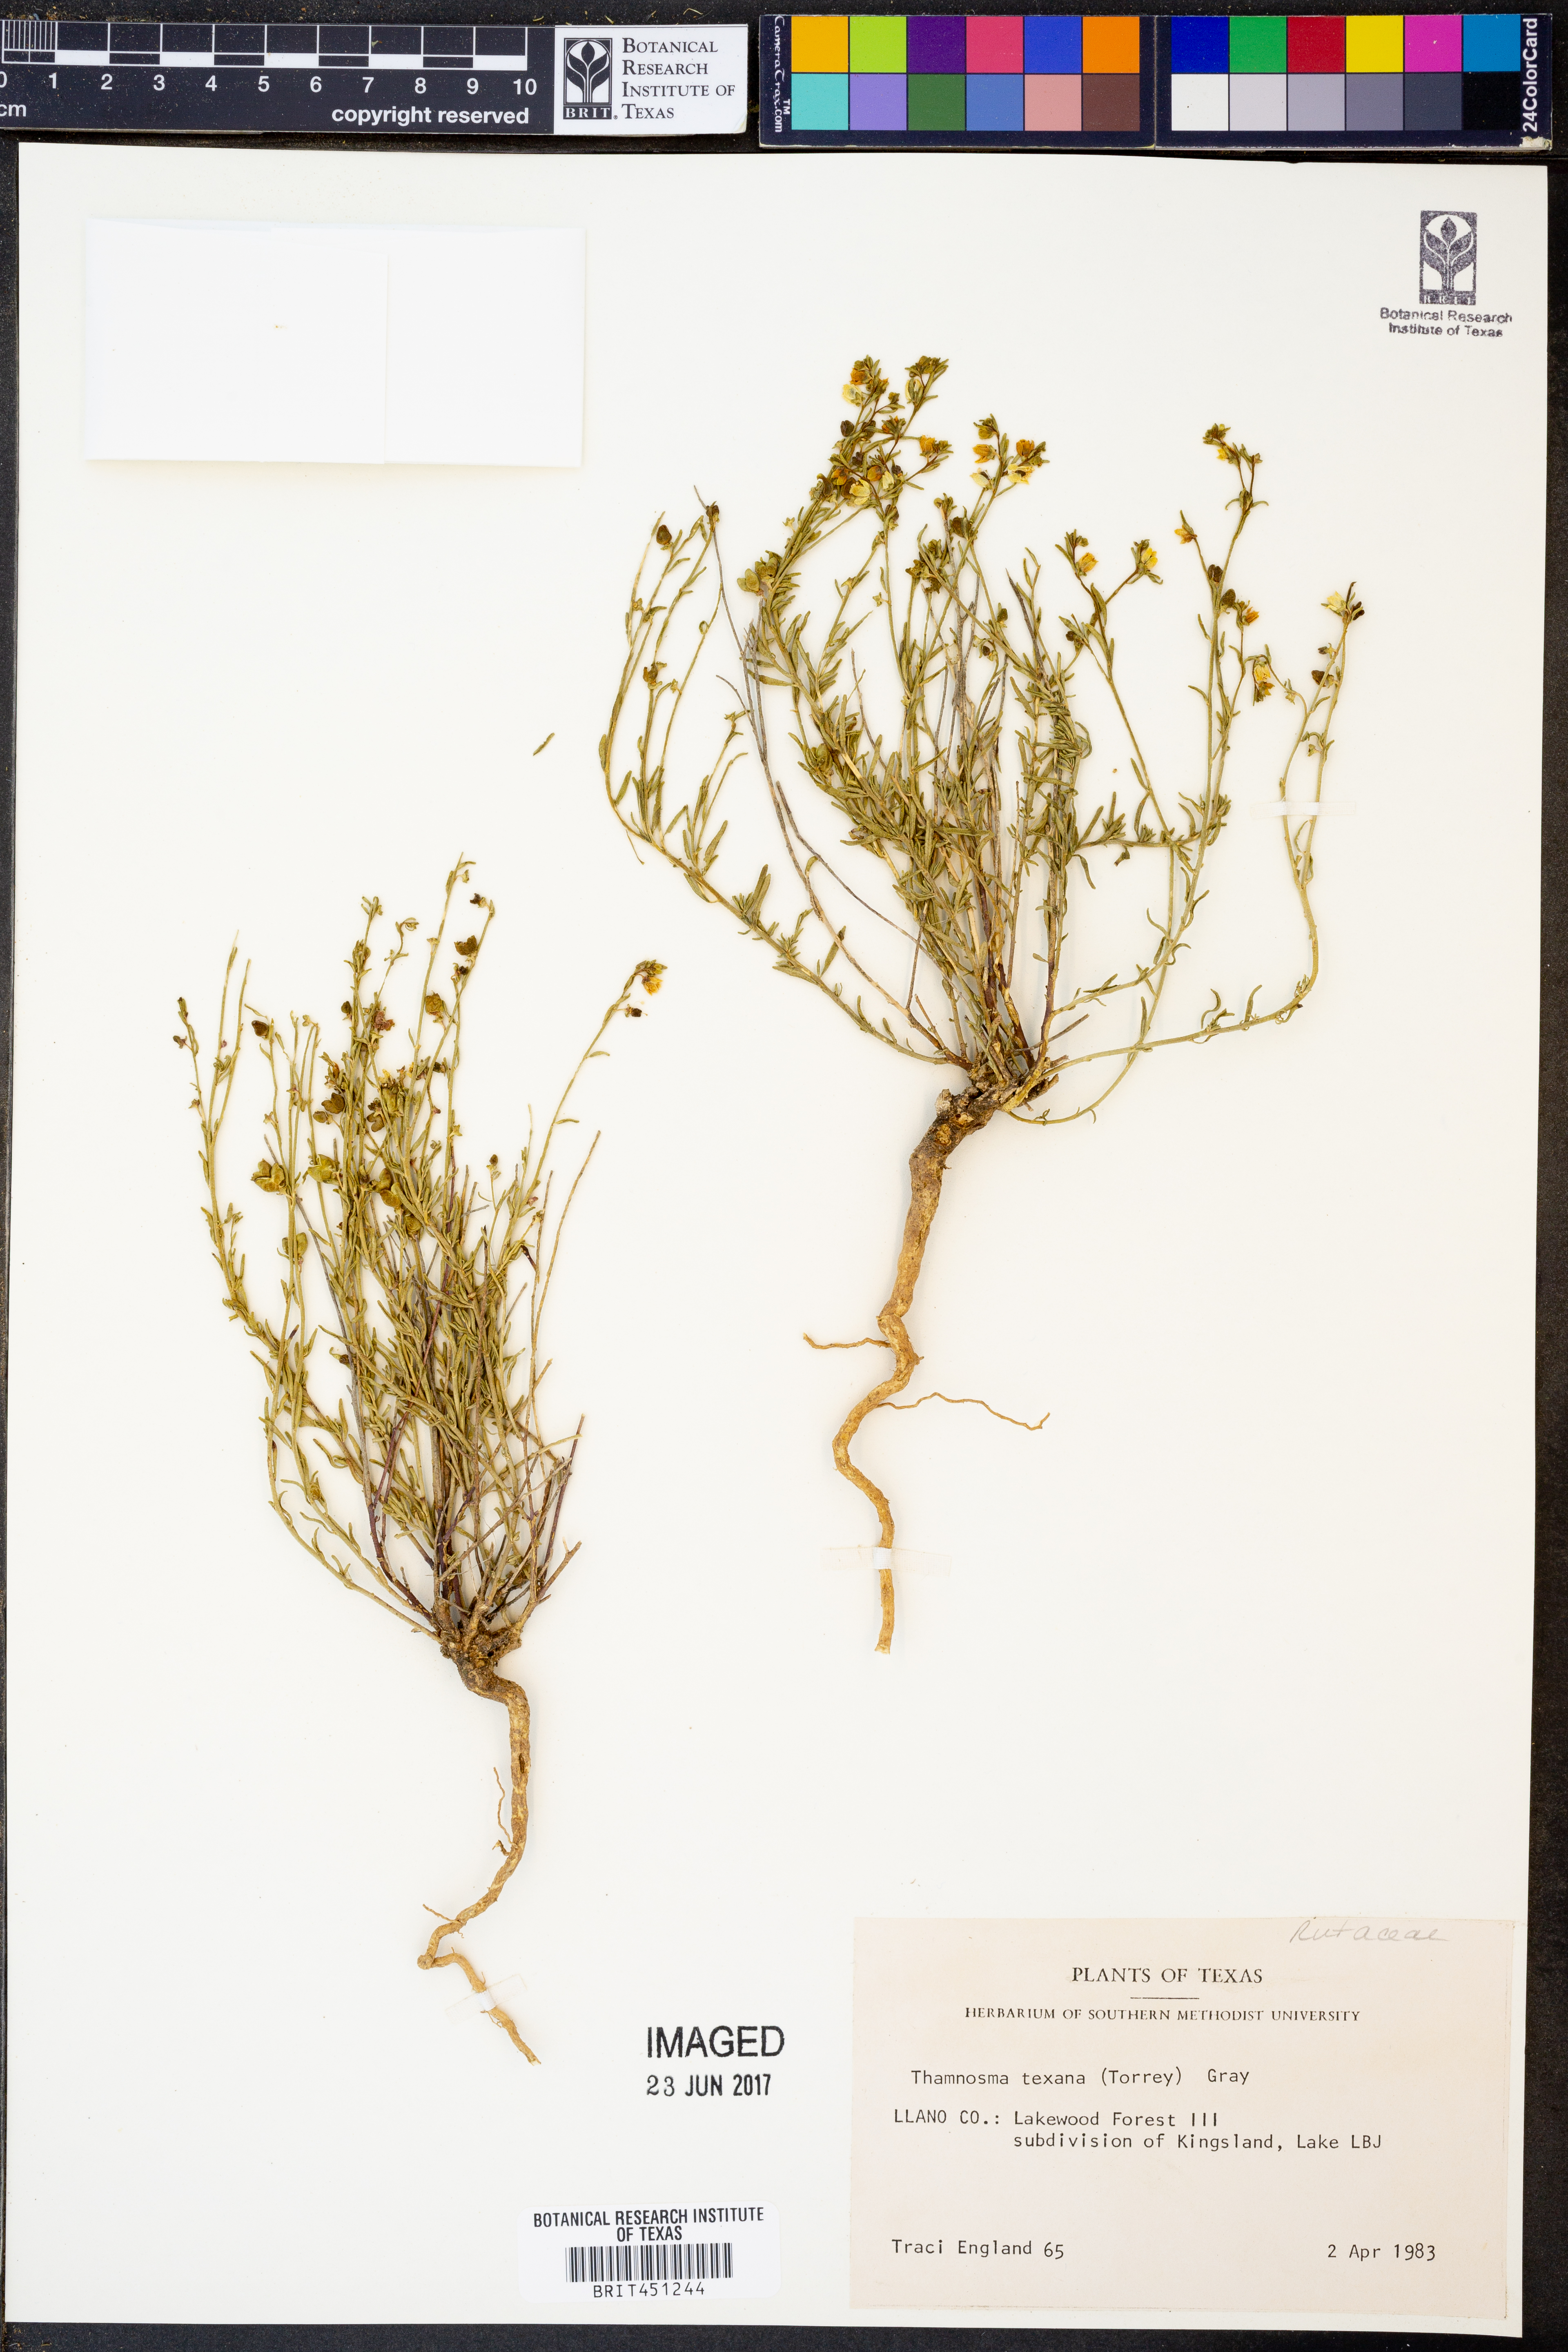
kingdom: Plantae
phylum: Tracheophyta
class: Magnoliopsida
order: Sapindales
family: Rutaceae
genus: Thamnosma
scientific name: Thamnosma texana
